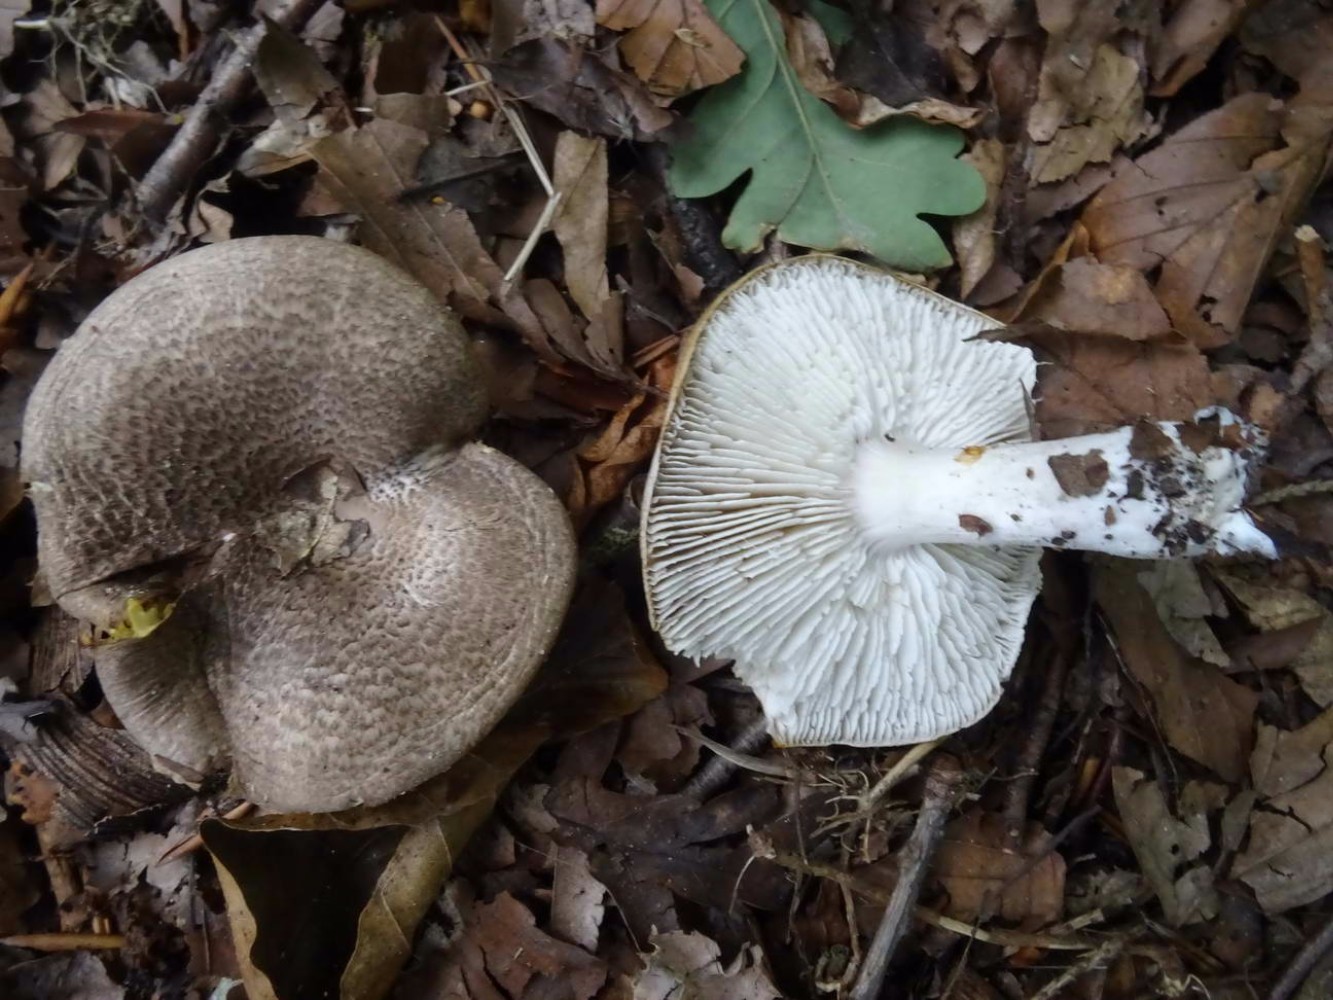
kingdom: Fungi
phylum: Basidiomycota
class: Agaricomycetes
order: Agaricales
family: Tricholomataceae
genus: Tricholoma
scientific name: Tricholoma scalpturatum
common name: gulplettet ridderhat
